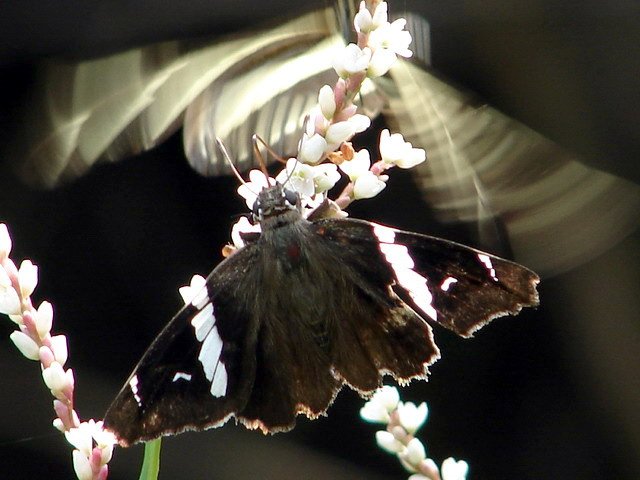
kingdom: Animalia
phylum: Arthropoda
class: Insecta
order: Lepidoptera
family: Hesperiidae
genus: Spathilepia
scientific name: Spathilepia clonius
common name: Falcate Skipper
